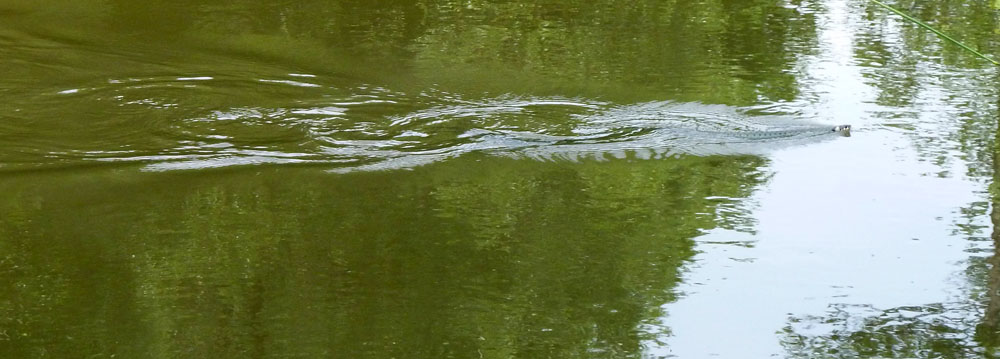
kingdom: Animalia
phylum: Chordata
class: Squamata
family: Colubridae
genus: Natrix
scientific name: Natrix natrix
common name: Grass snake
